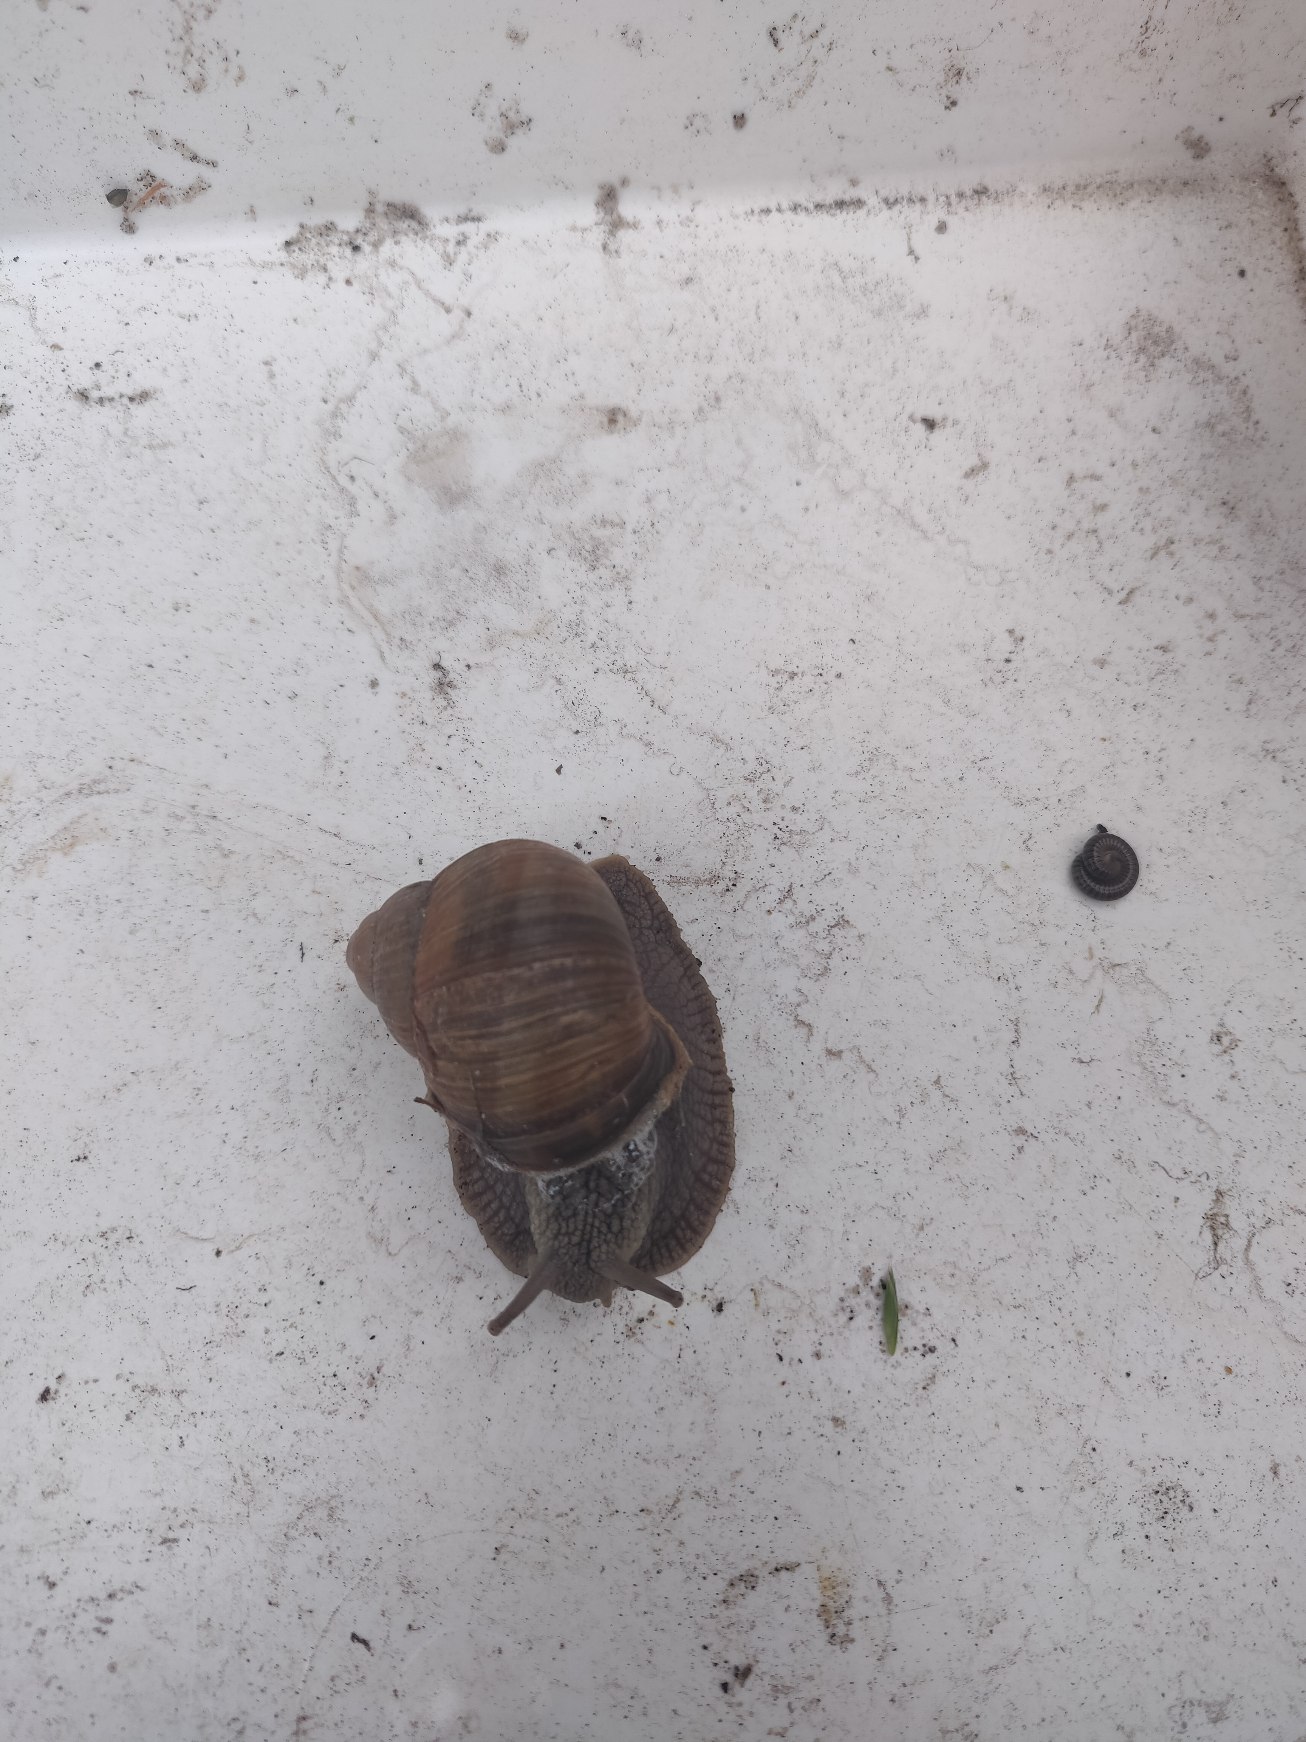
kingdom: Animalia
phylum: Mollusca
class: Gastropoda
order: Stylommatophora
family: Helicidae
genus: Helix
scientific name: Helix pomatia
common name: Vinbjergsnegl
